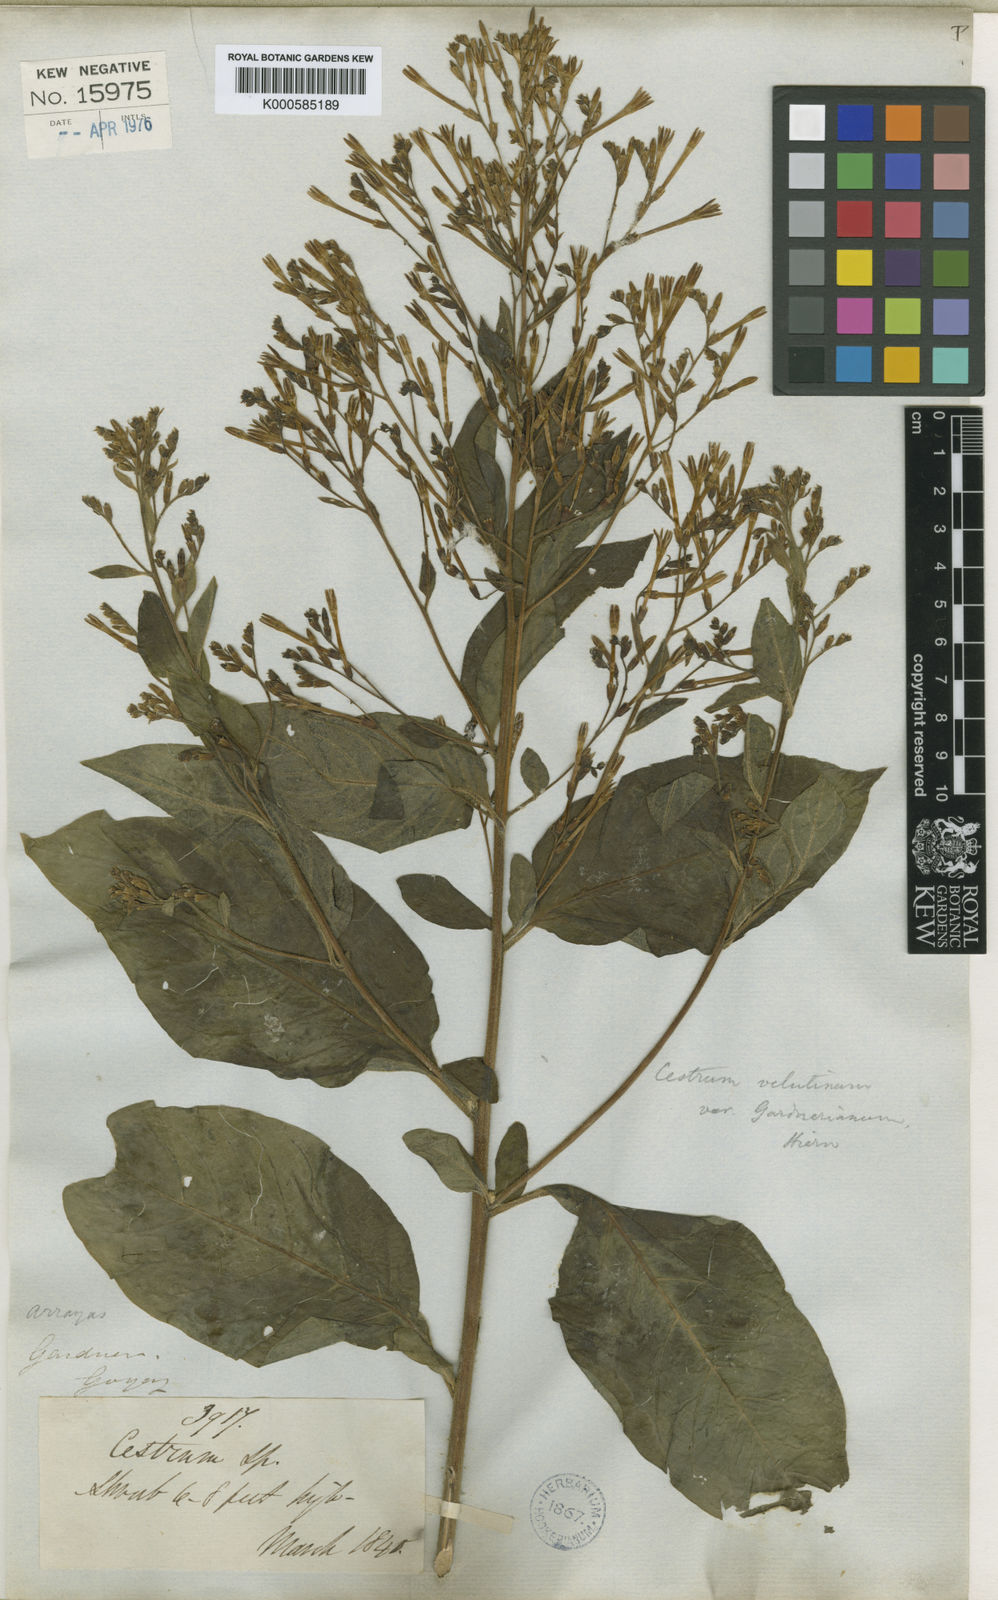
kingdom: Plantae
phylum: Tracheophyta
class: Magnoliopsida
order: Solanales
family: Solanaceae
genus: Cestrum
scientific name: Cestrum velutinum
